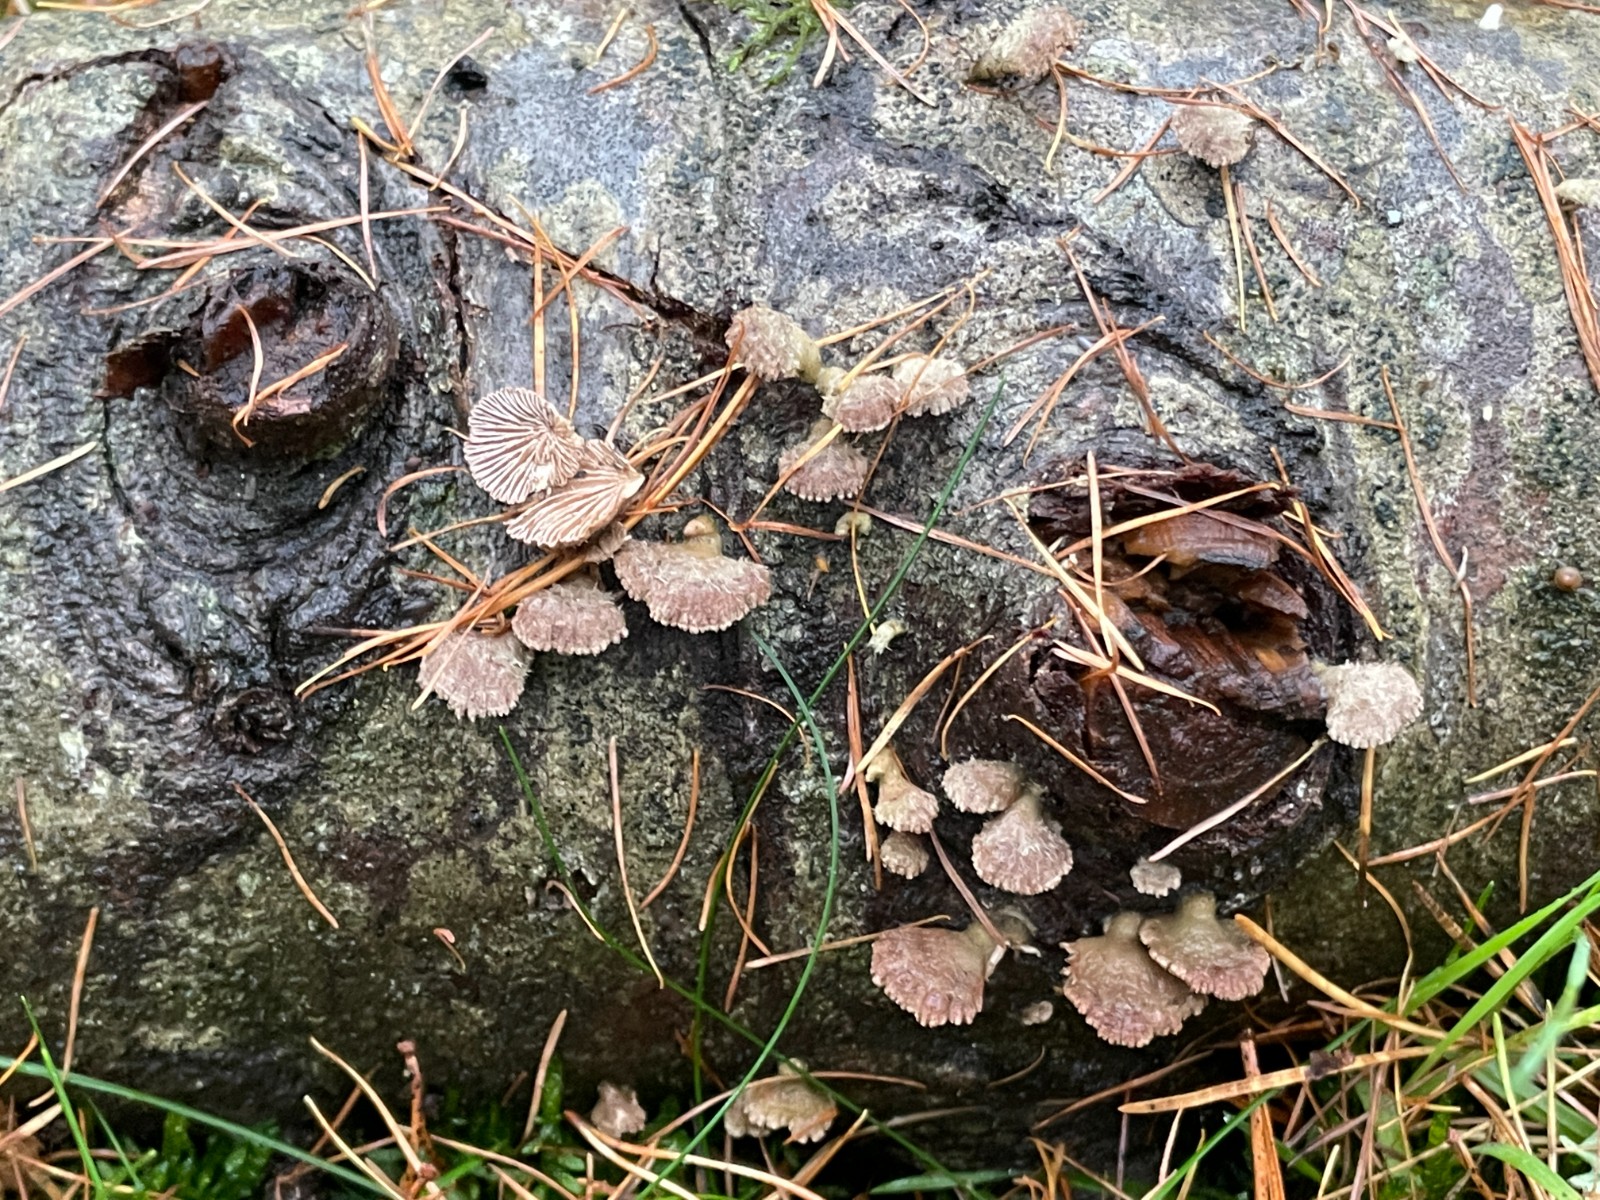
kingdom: Fungi
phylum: Basidiomycota
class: Agaricomycetes
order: Agaricales
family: Schizophyllaceae
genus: Schizophyllum
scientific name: Schizophyllum commune
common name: kløvblad
